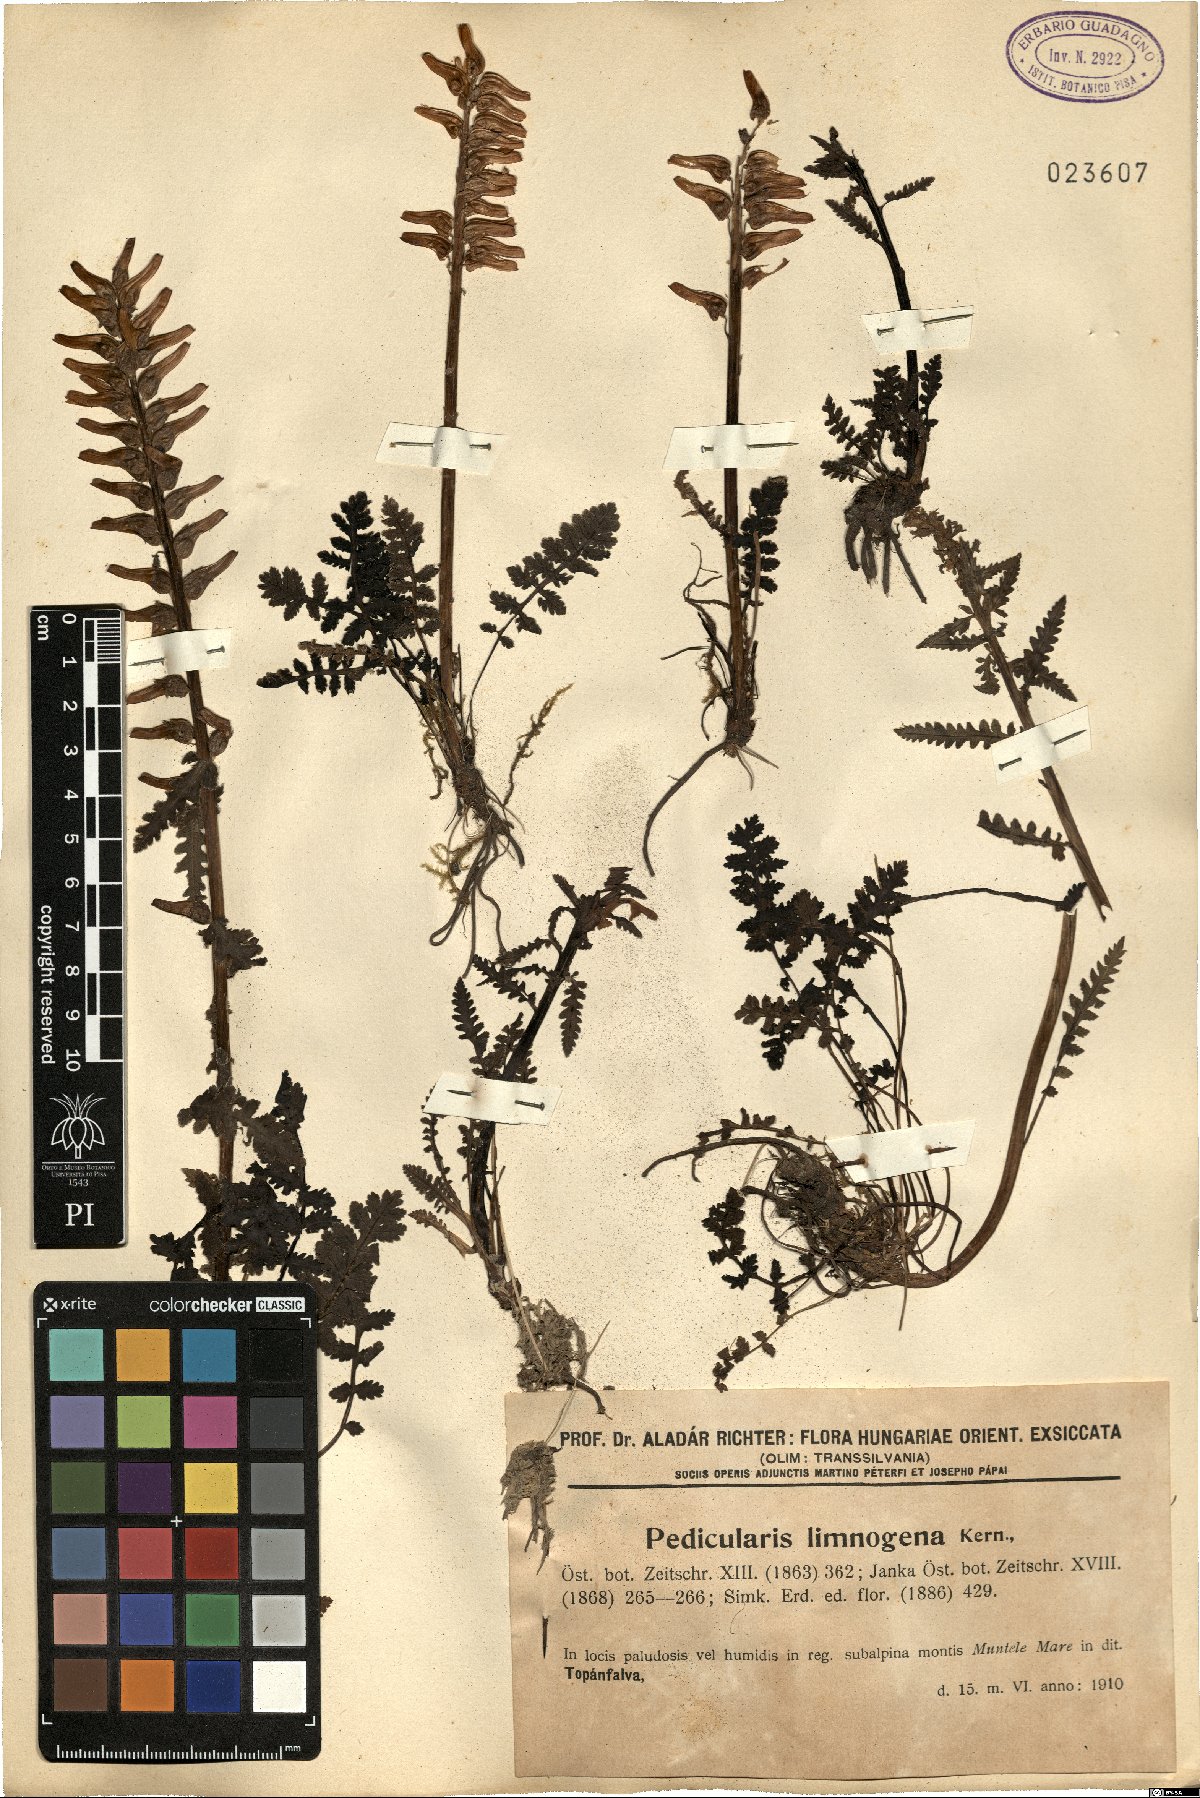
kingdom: Plantae
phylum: Tracheophyta
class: Magnoliopsida
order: Lamiales
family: Orobanchaceae
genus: Pedicularis
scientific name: Pedicularis olympica
